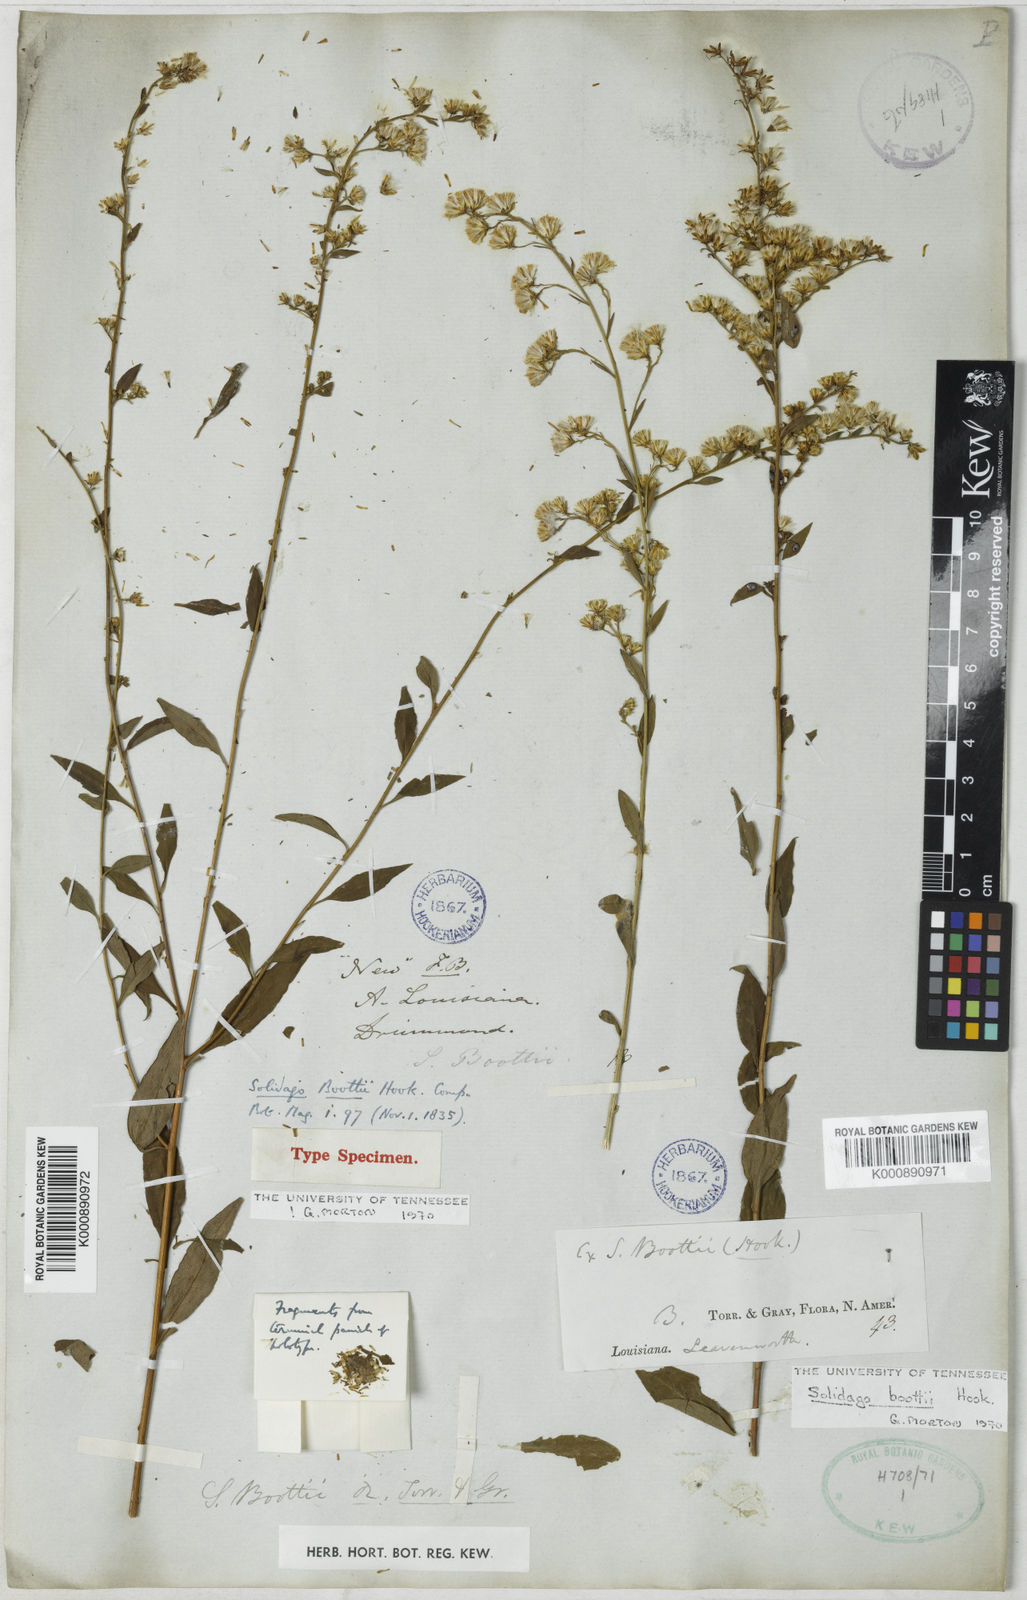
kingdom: Plantae
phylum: Tracheophyta
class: Magnoliopsida
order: Asterales
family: Asteraceae
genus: Solidago
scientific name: Solidago boottii
